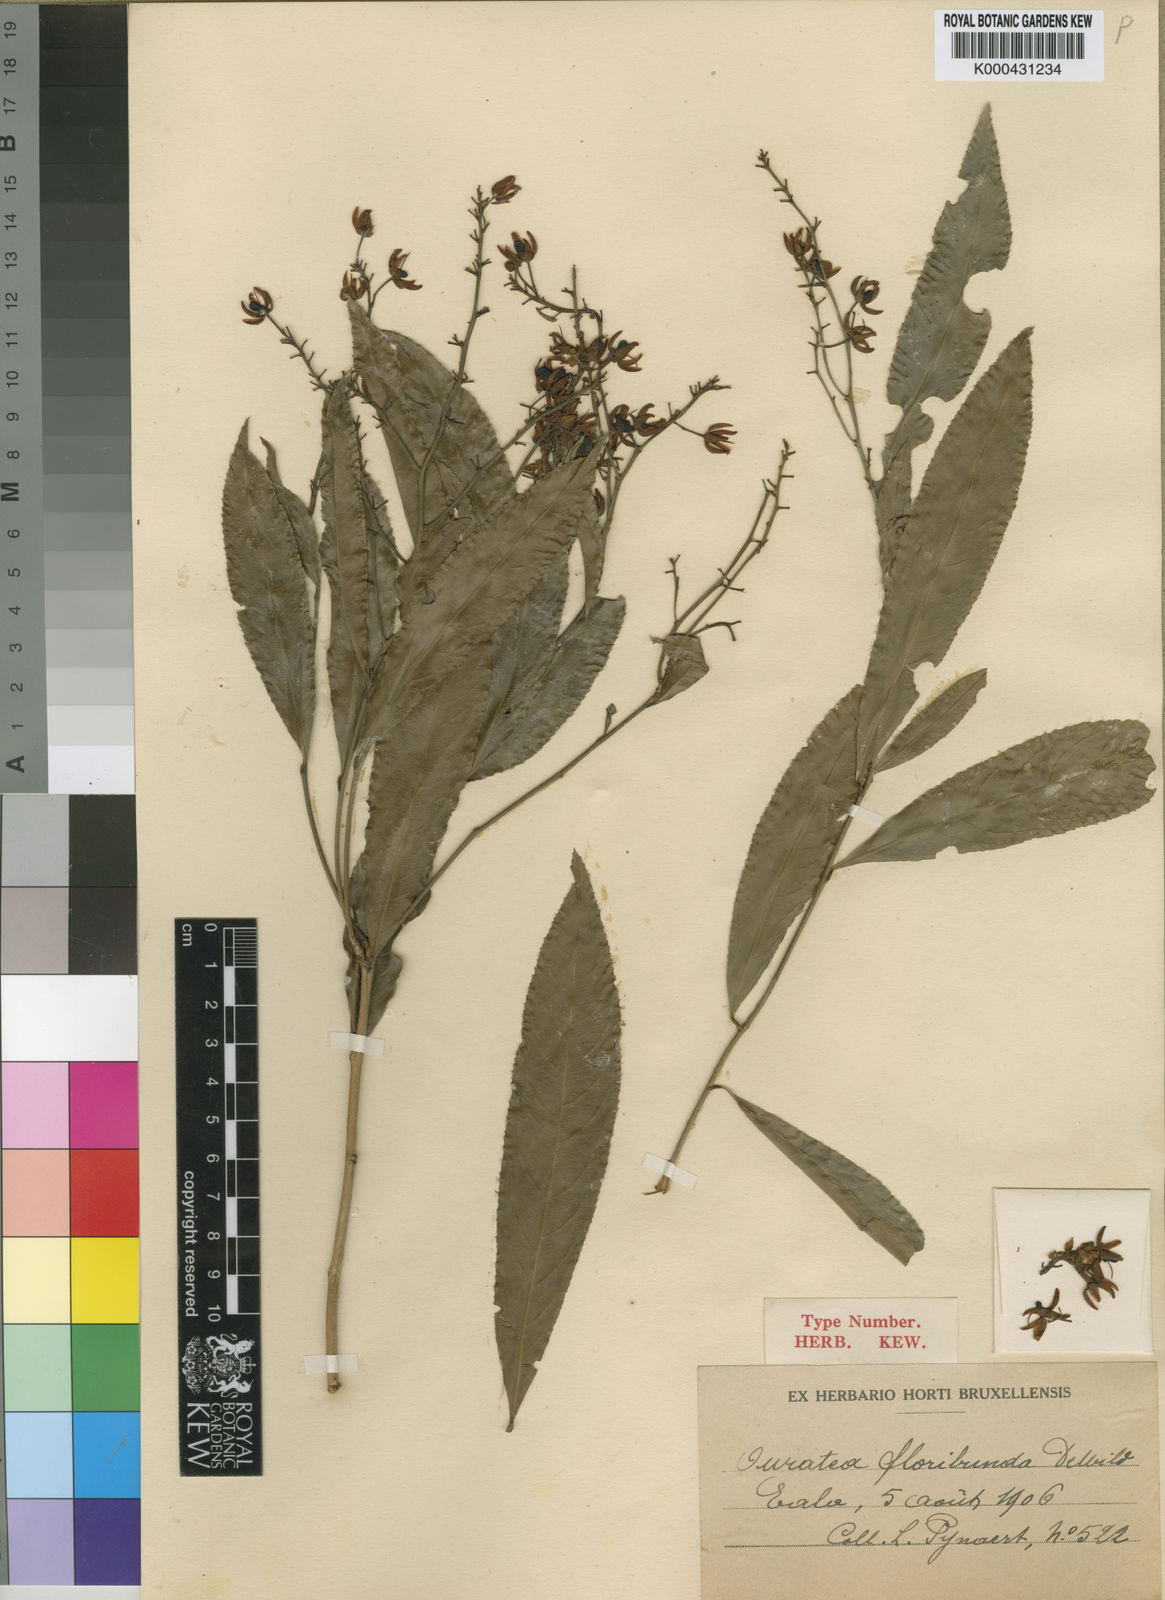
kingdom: Plantae
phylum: Tracheophyta
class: Magnoliopsida
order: Malpighiales
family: Ochnaceae
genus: Campylospermum
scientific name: Campylospermum bukobense
